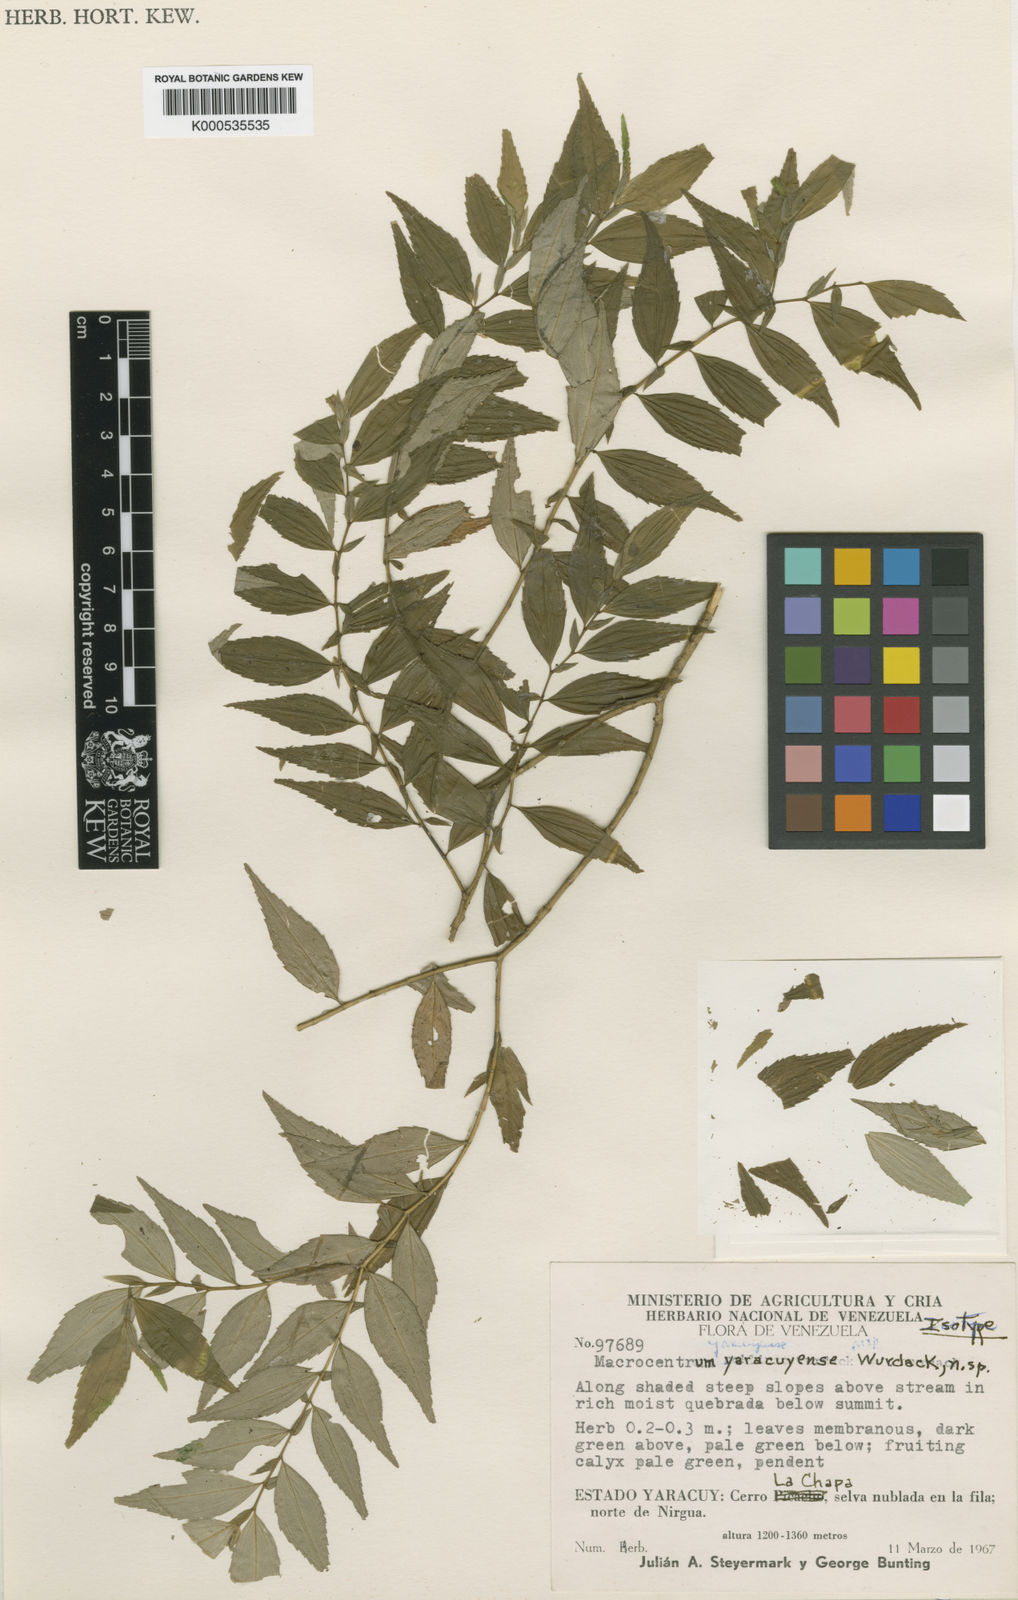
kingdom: Plantae
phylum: Tracheophyta
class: Magnoliopsida
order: Myrtales
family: Melastomataceae
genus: Macrocentrum
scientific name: Macrocentrum yaracuyense
